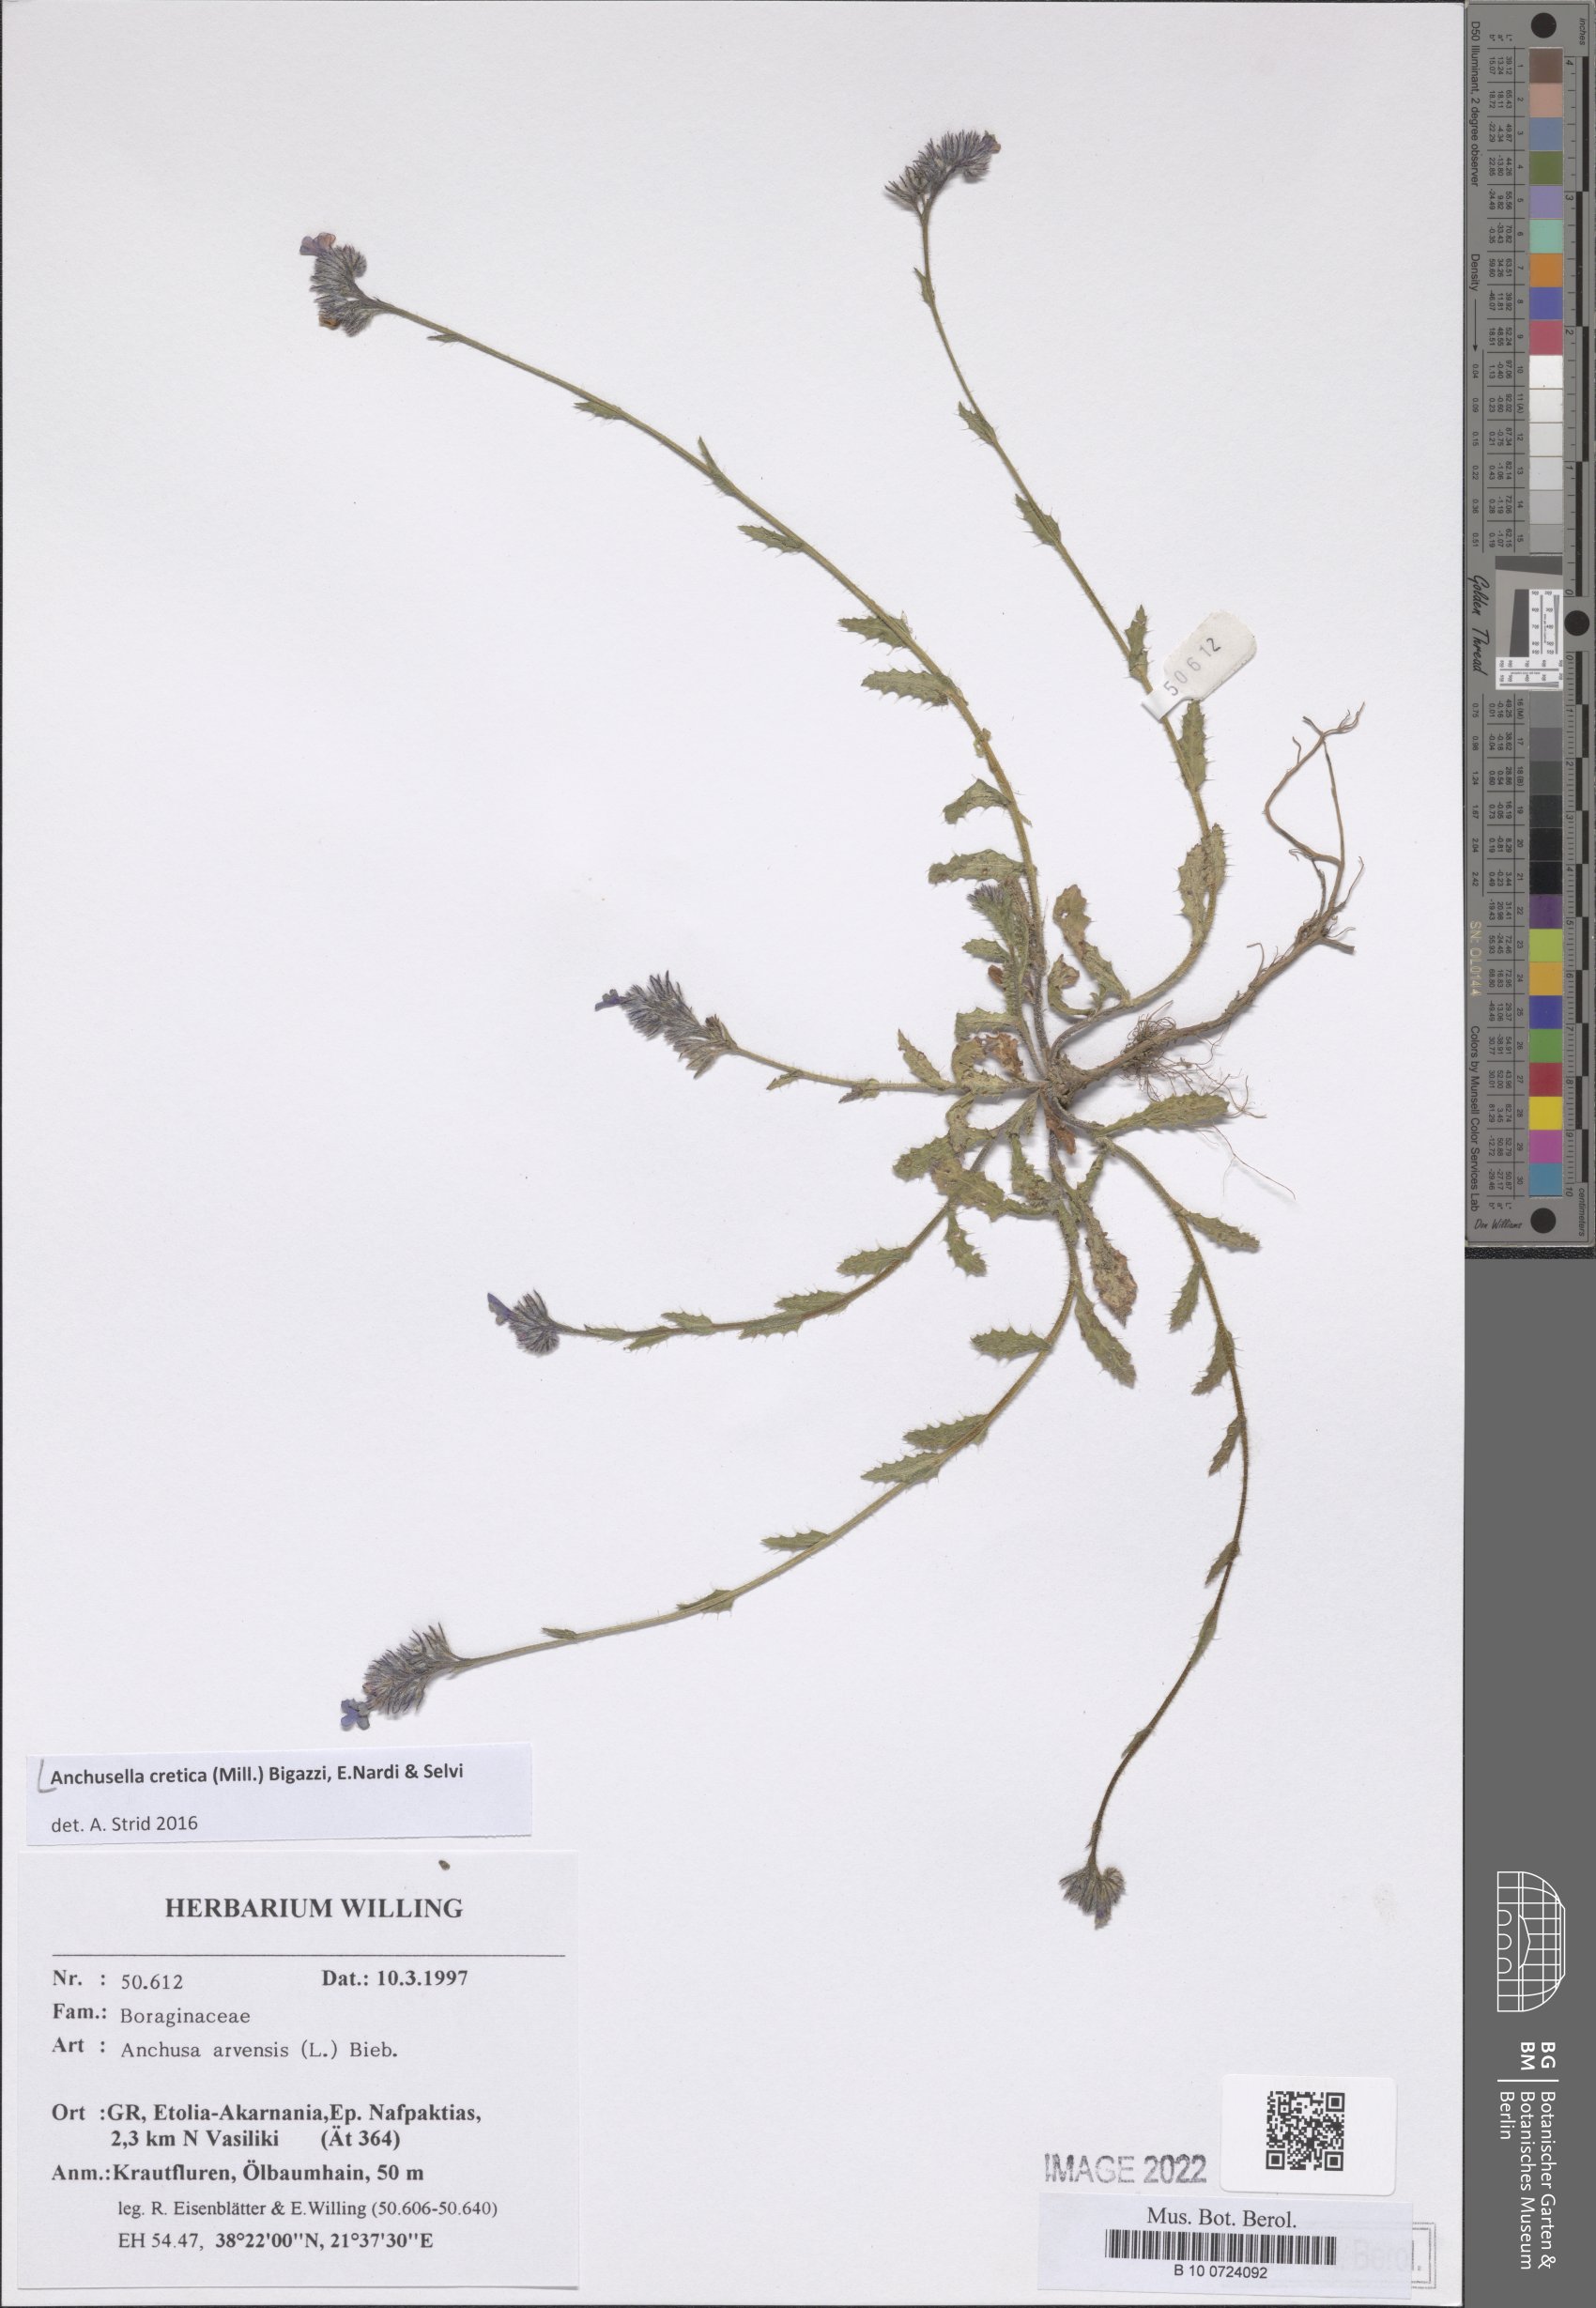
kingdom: Plantae
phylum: Tracheophyta
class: Magnoliopsida
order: Boraginales
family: Boraginaceae
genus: Anchusella
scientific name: Anchusella cretica
